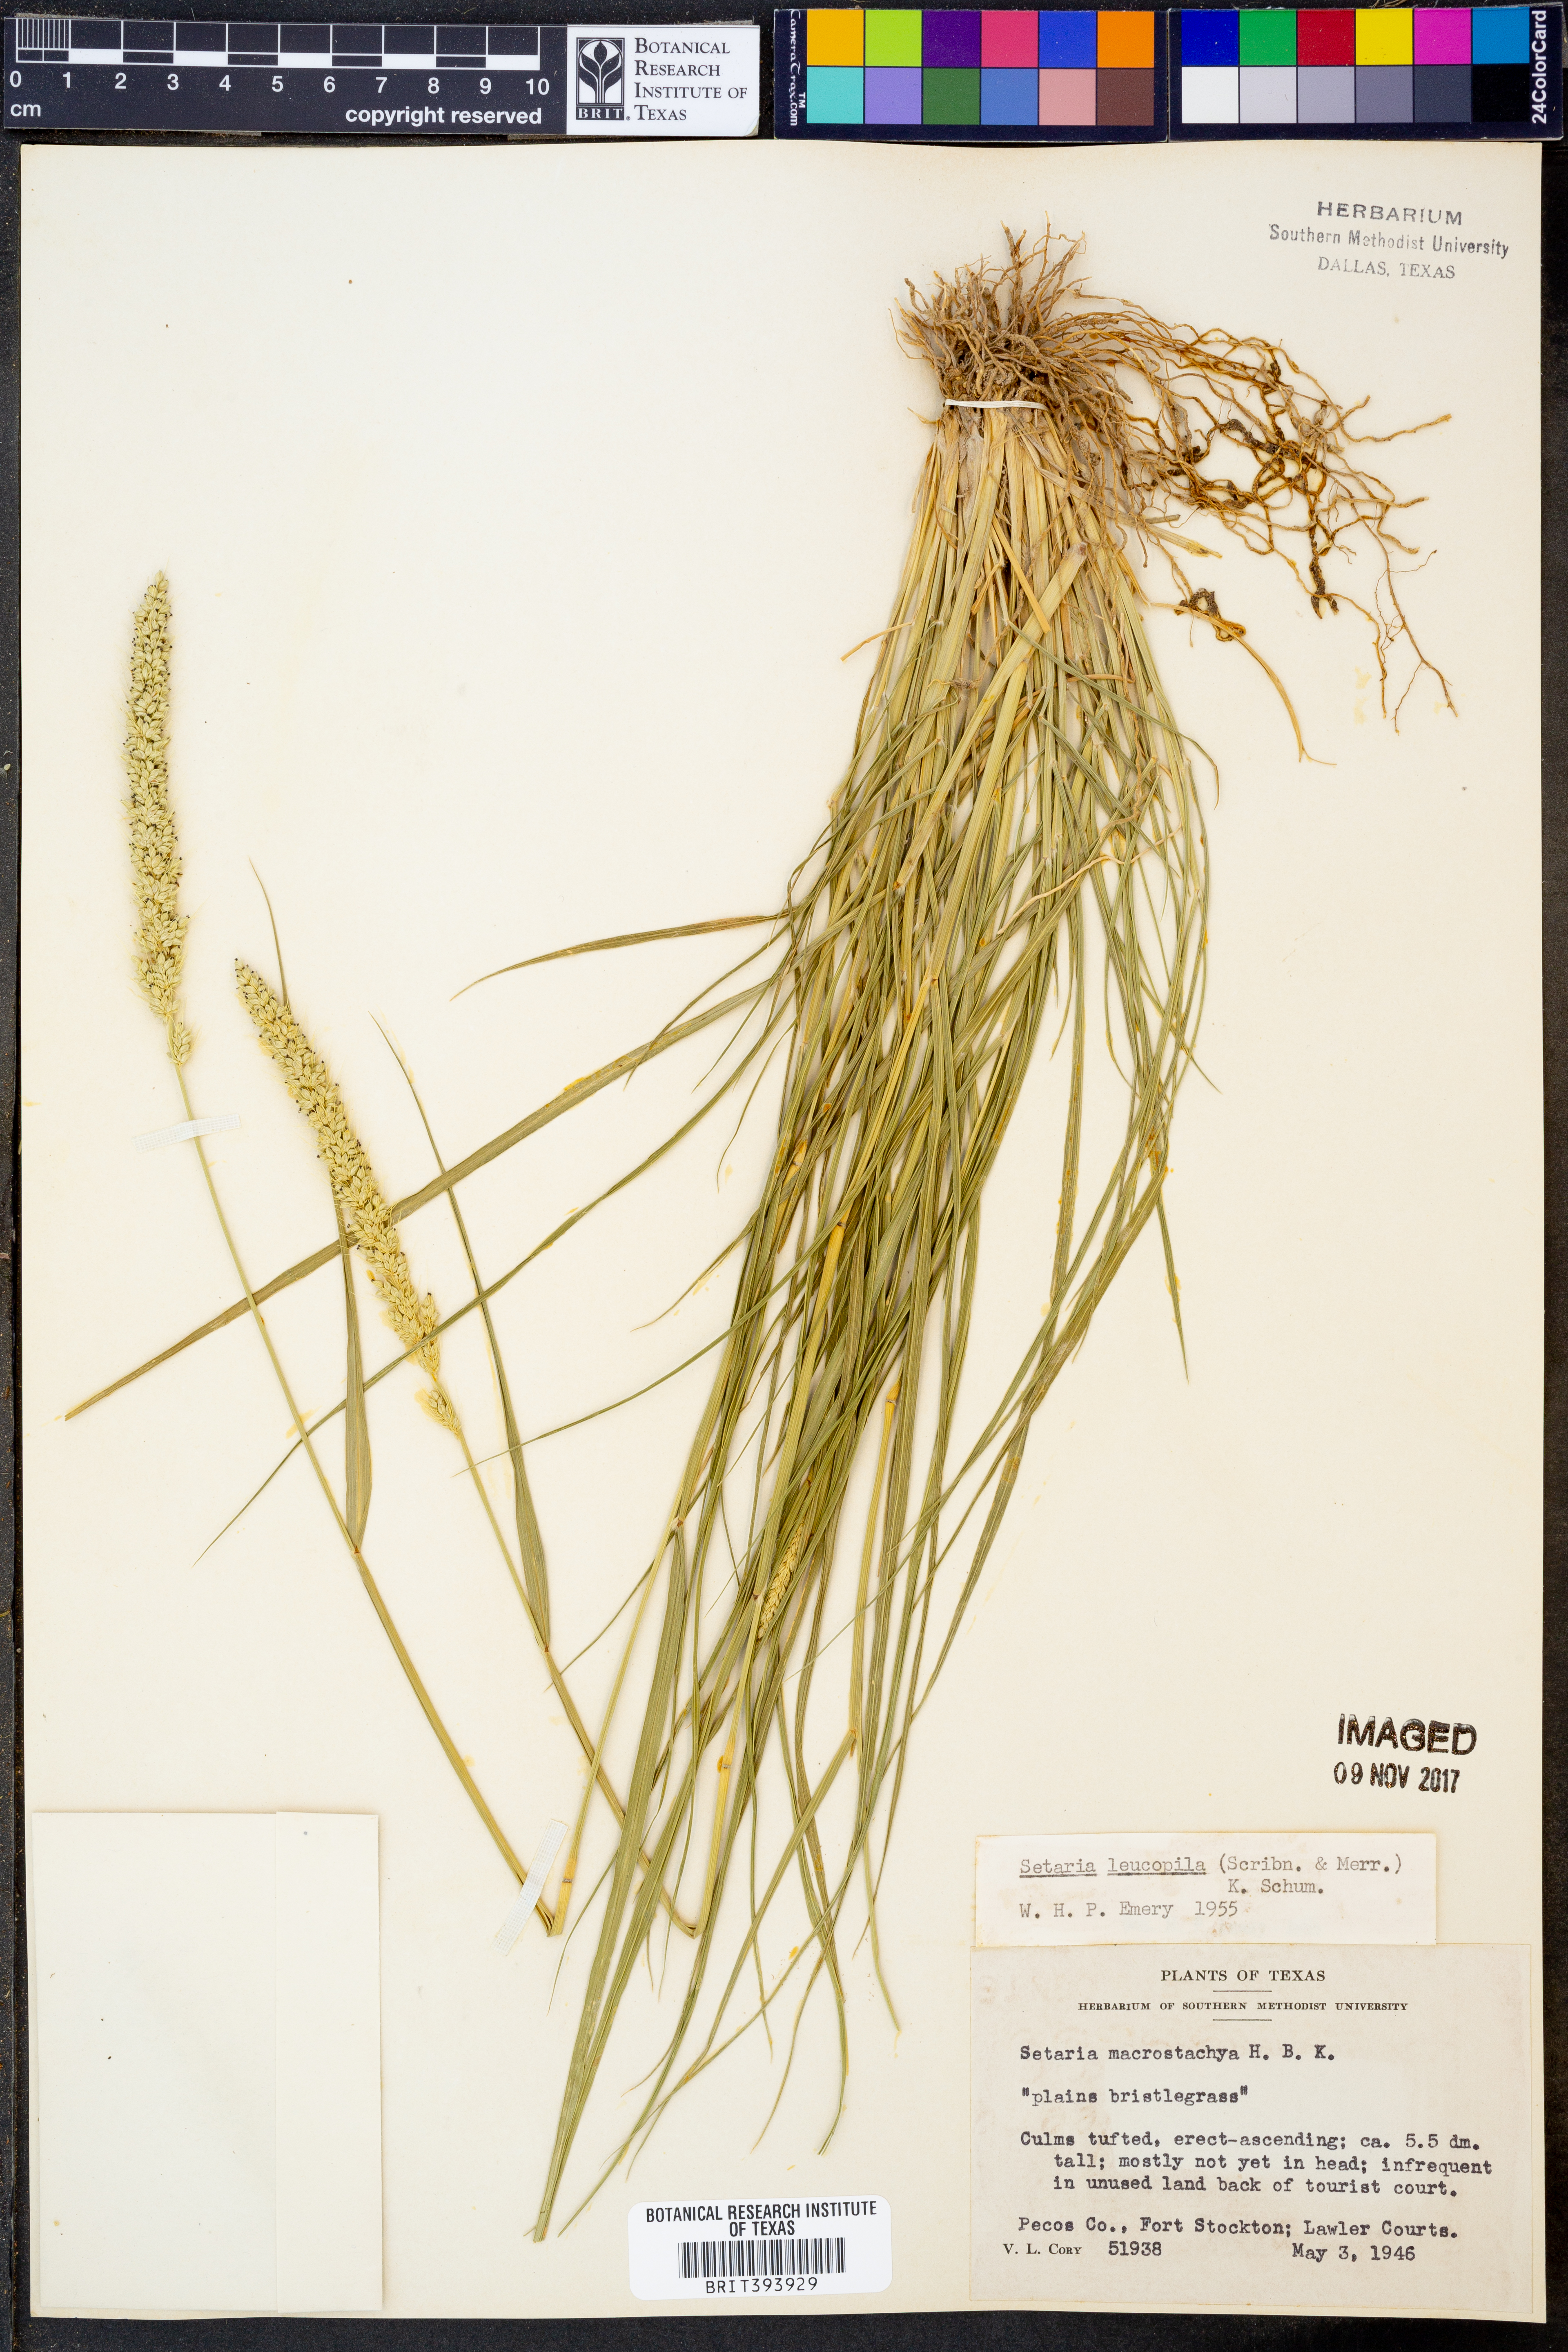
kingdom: Plantae
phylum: Tracheophyta
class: Liliopsida
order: Poales
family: Poaceae
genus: Setaria
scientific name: Setaria leucopila
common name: Plains bristle grass
